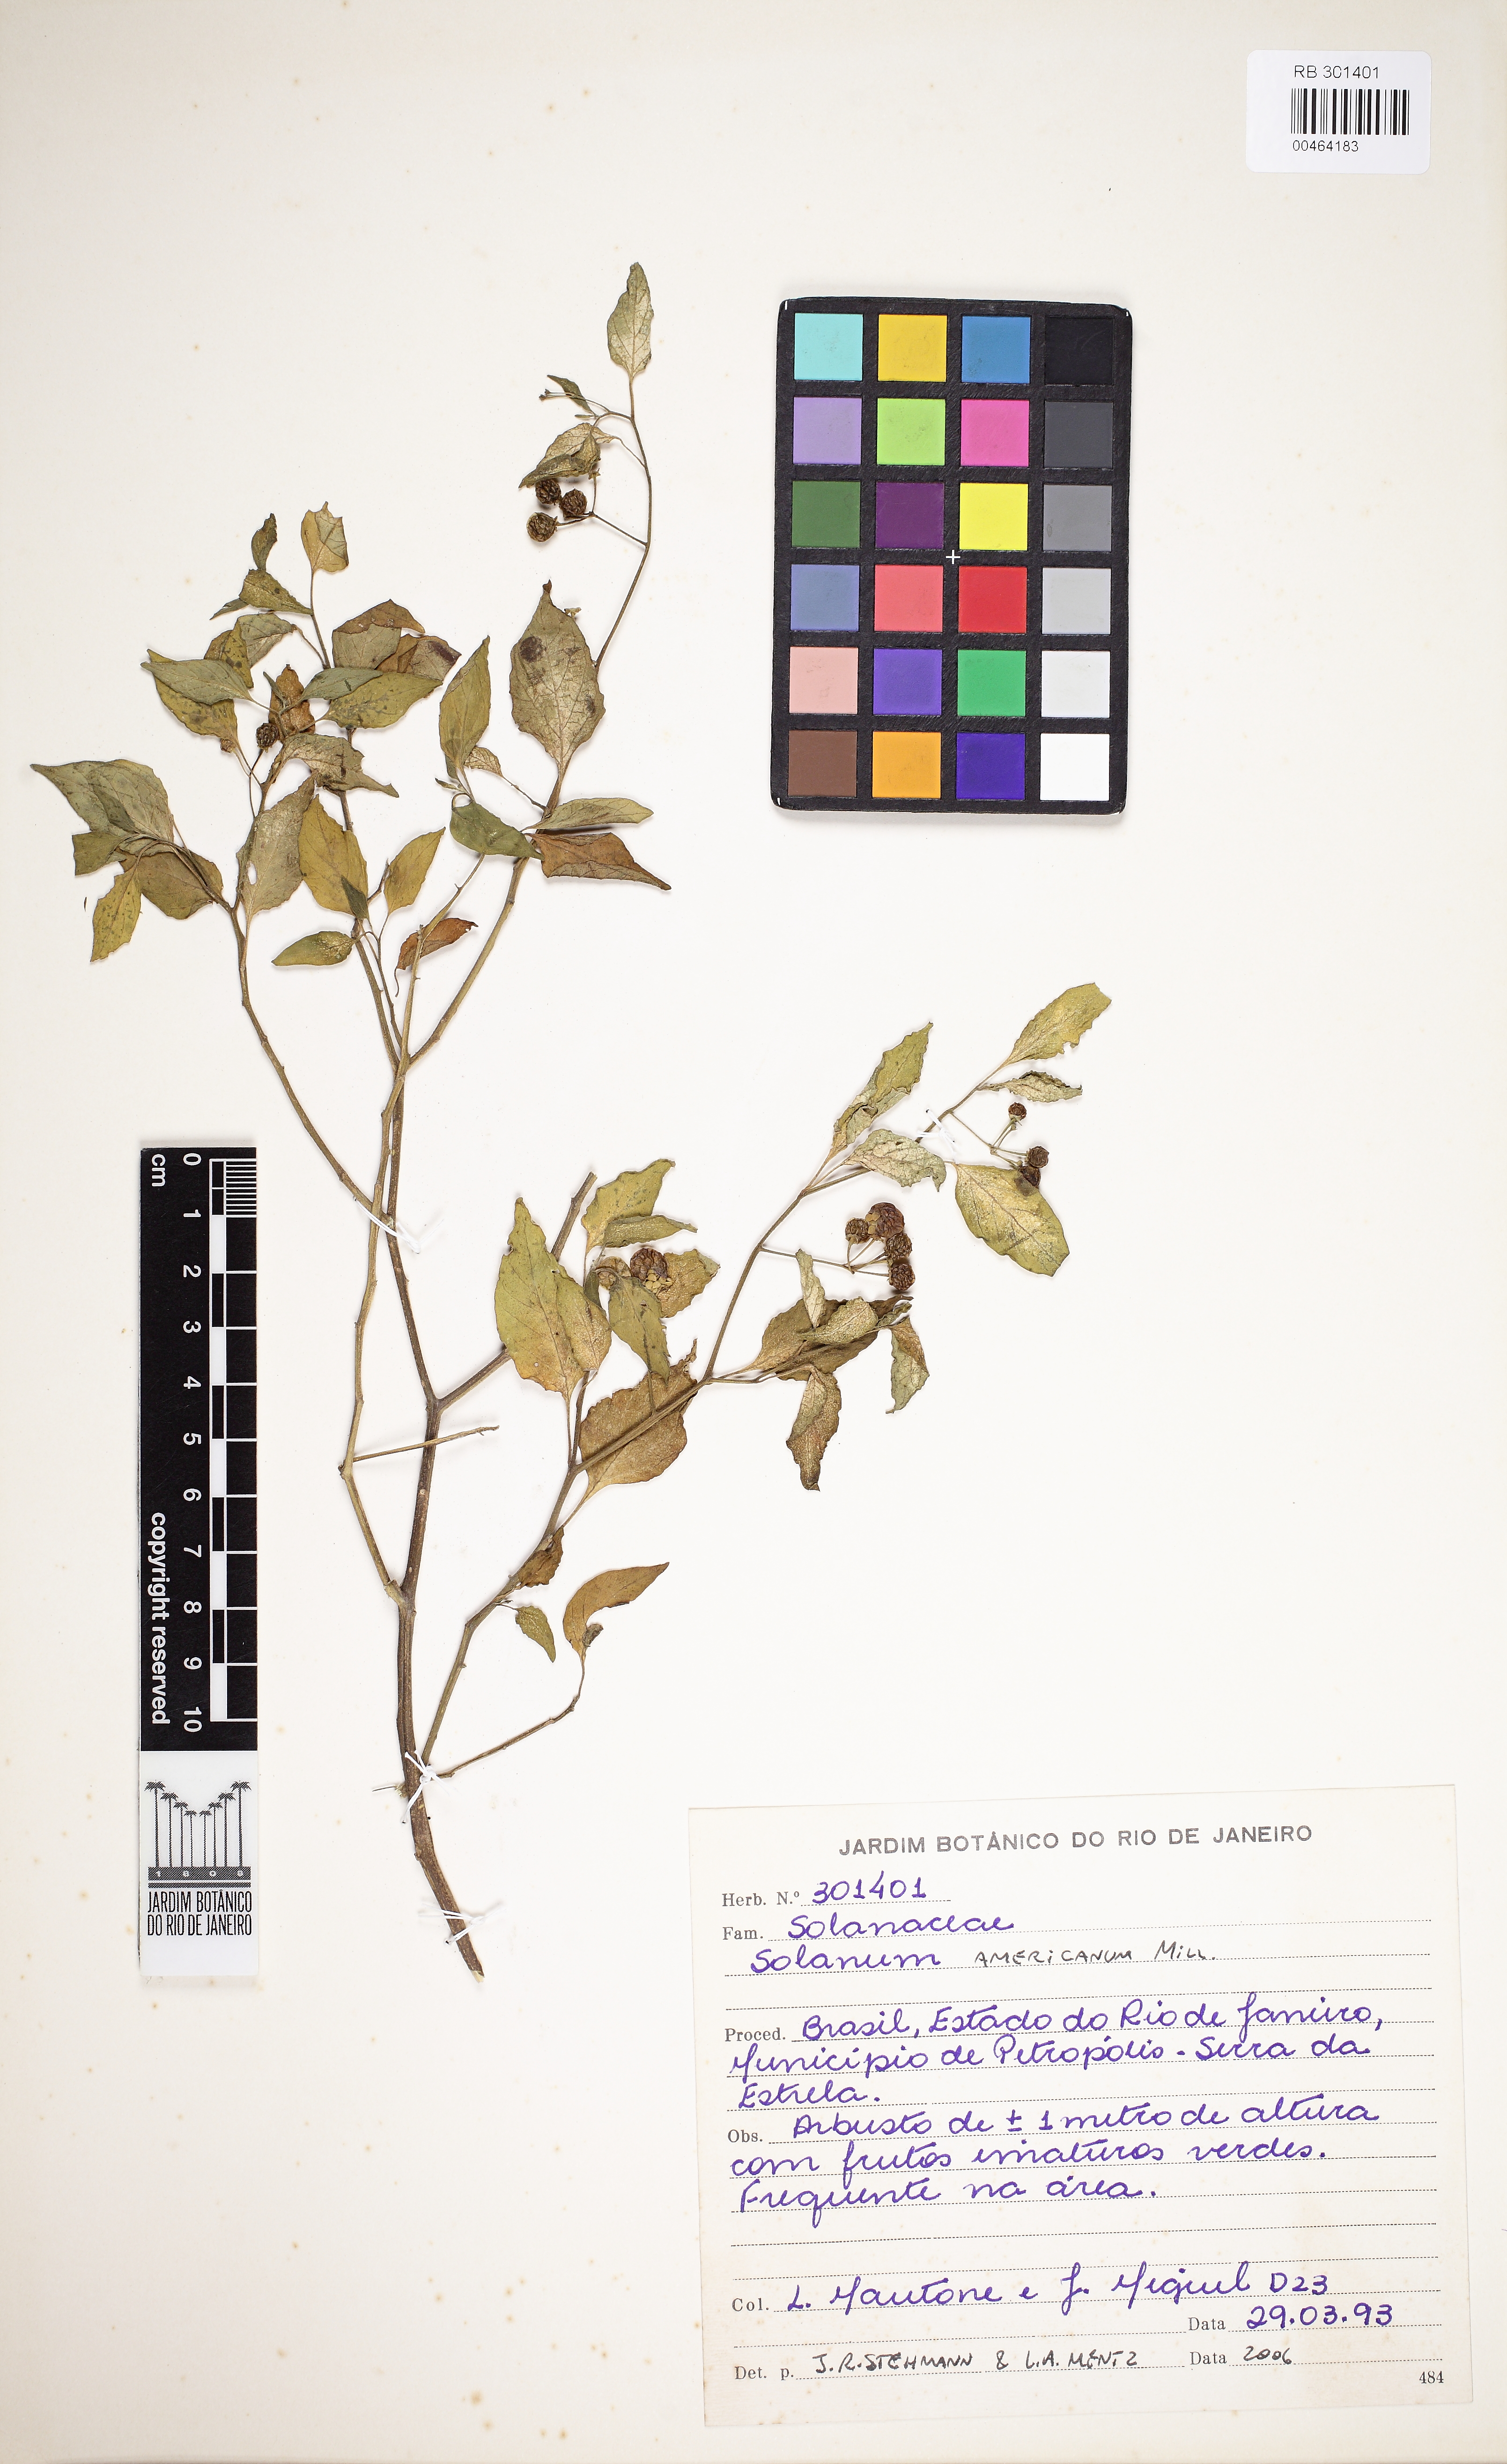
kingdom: Plantae
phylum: Tracheophyta
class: Magnoliopsida
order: Solanales
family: Solanaceae
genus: Solanum
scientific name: Solanum americanum
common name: American black nightshade
